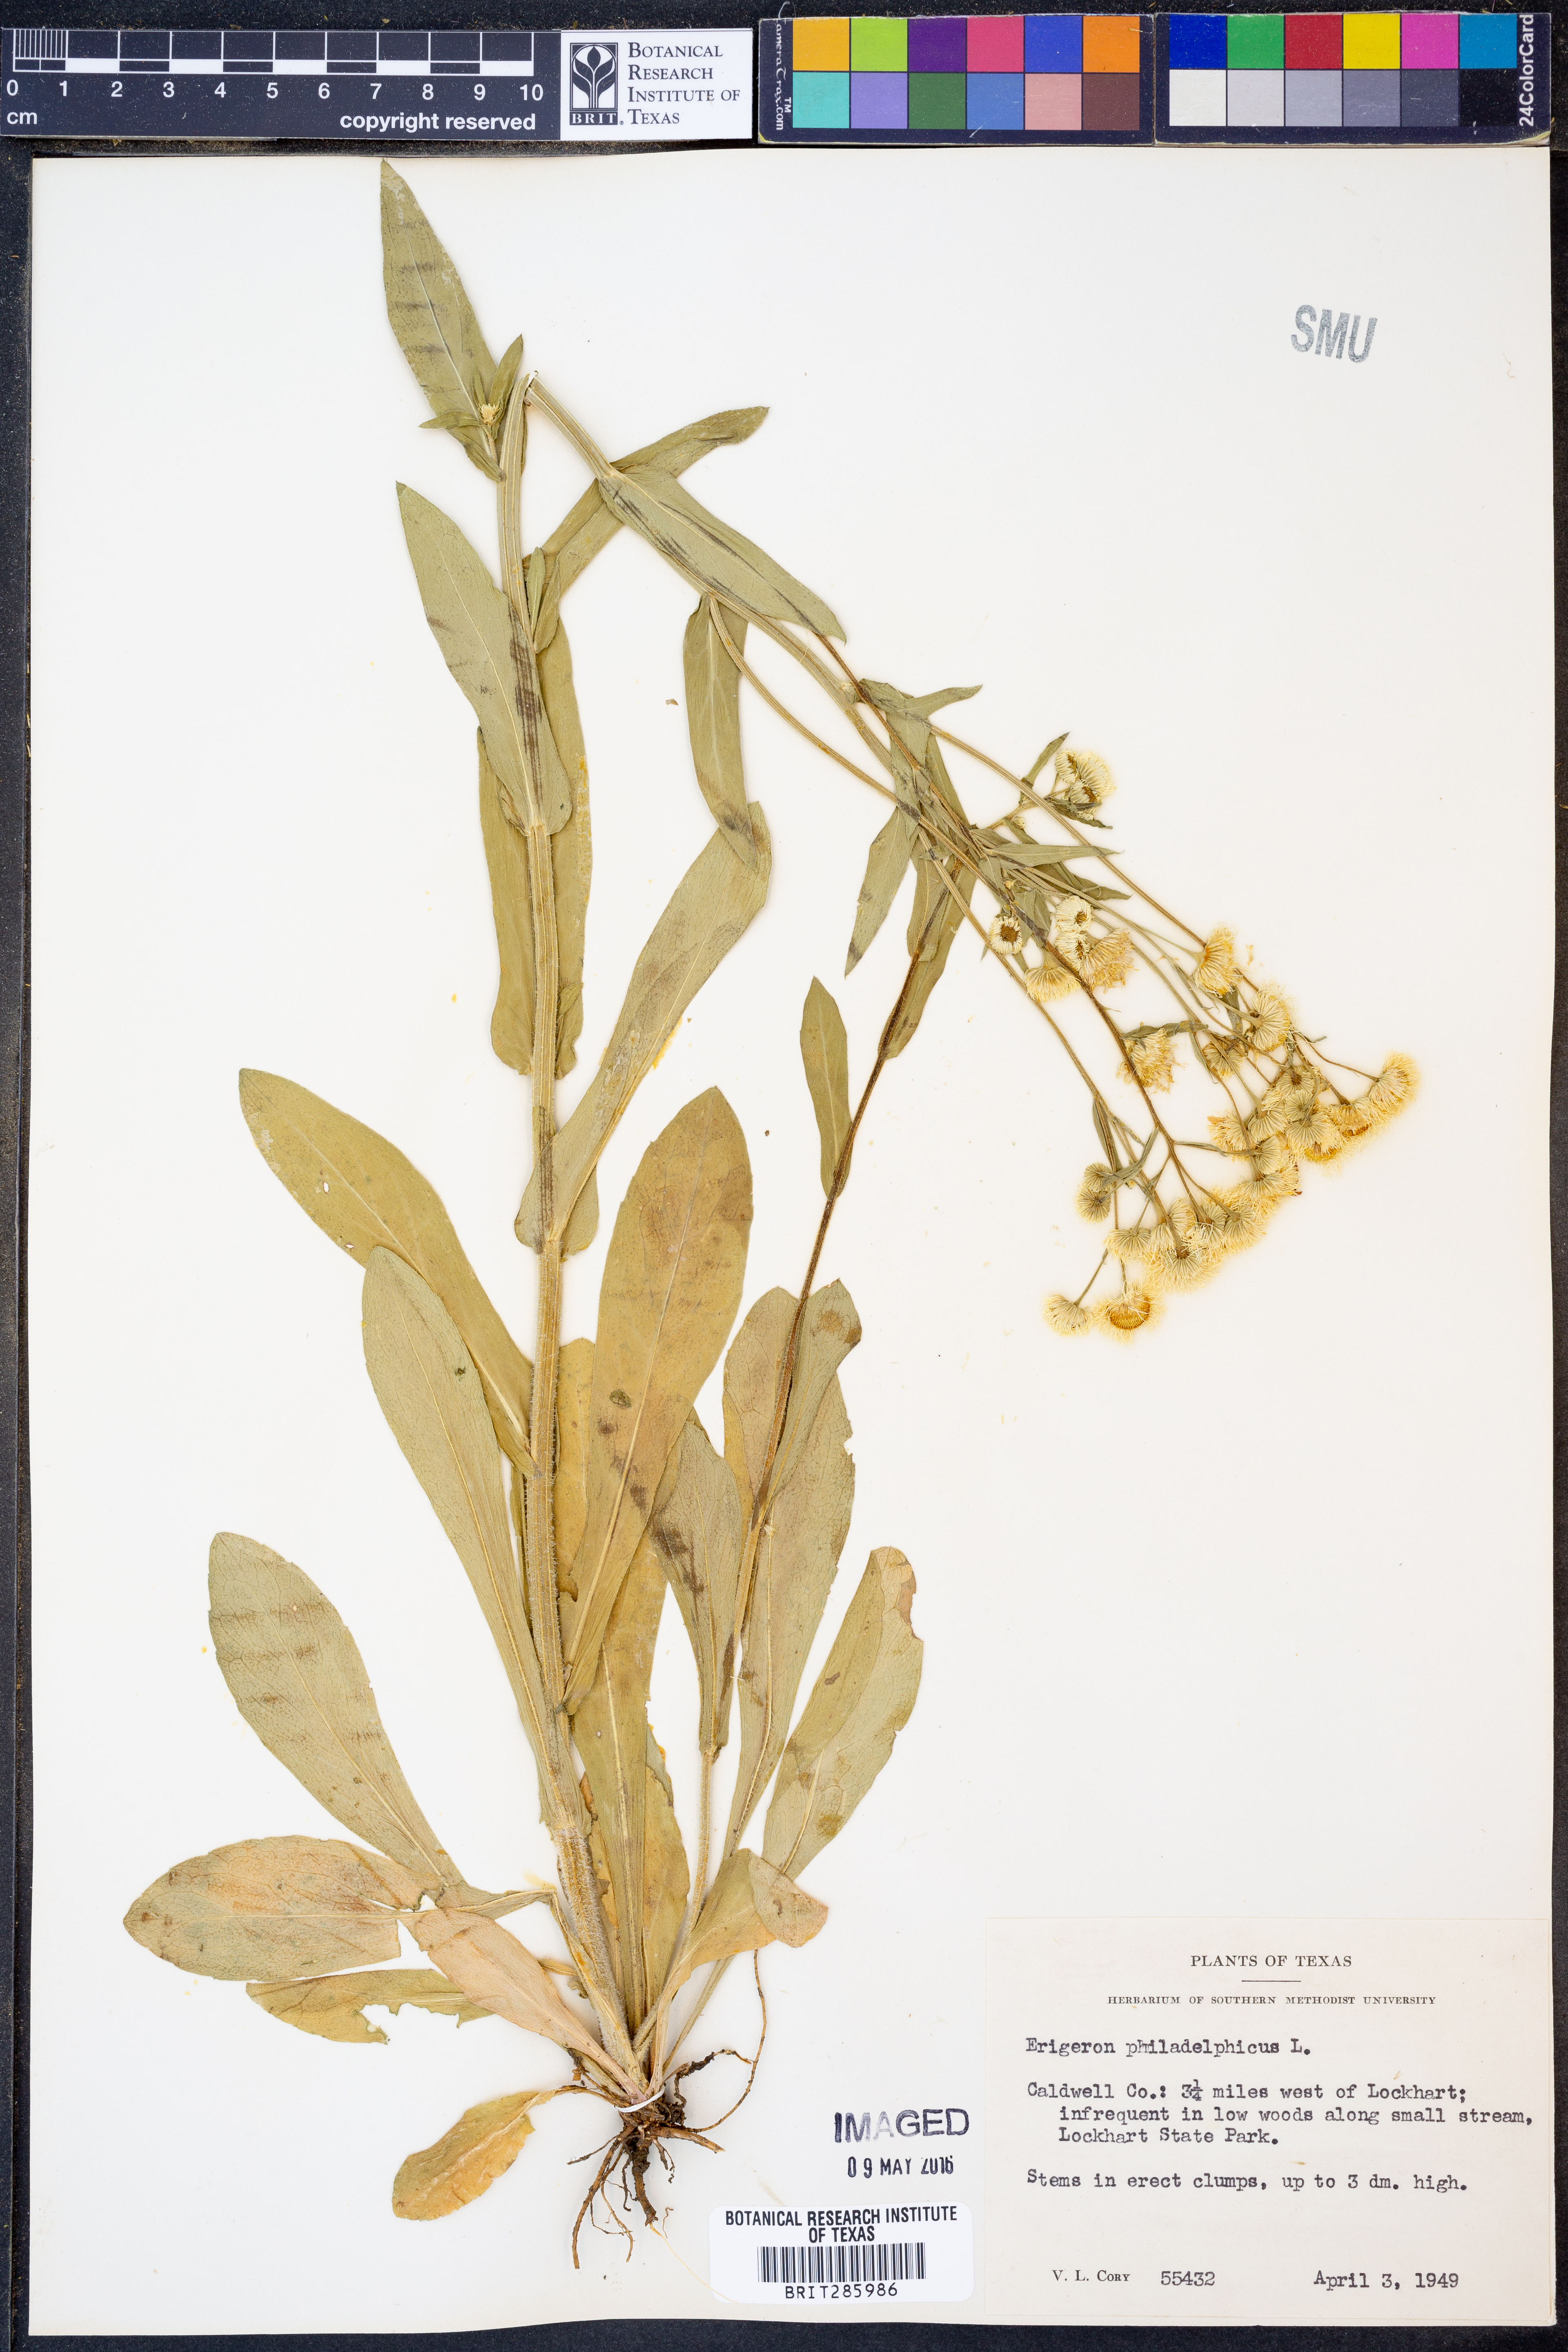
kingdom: Plantae
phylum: Tracheophyta
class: Magnoliopsida
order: Asterales
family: Asteraceae
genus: Erigeron
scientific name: Erigeron philadelphicus
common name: Robin's-plantain
